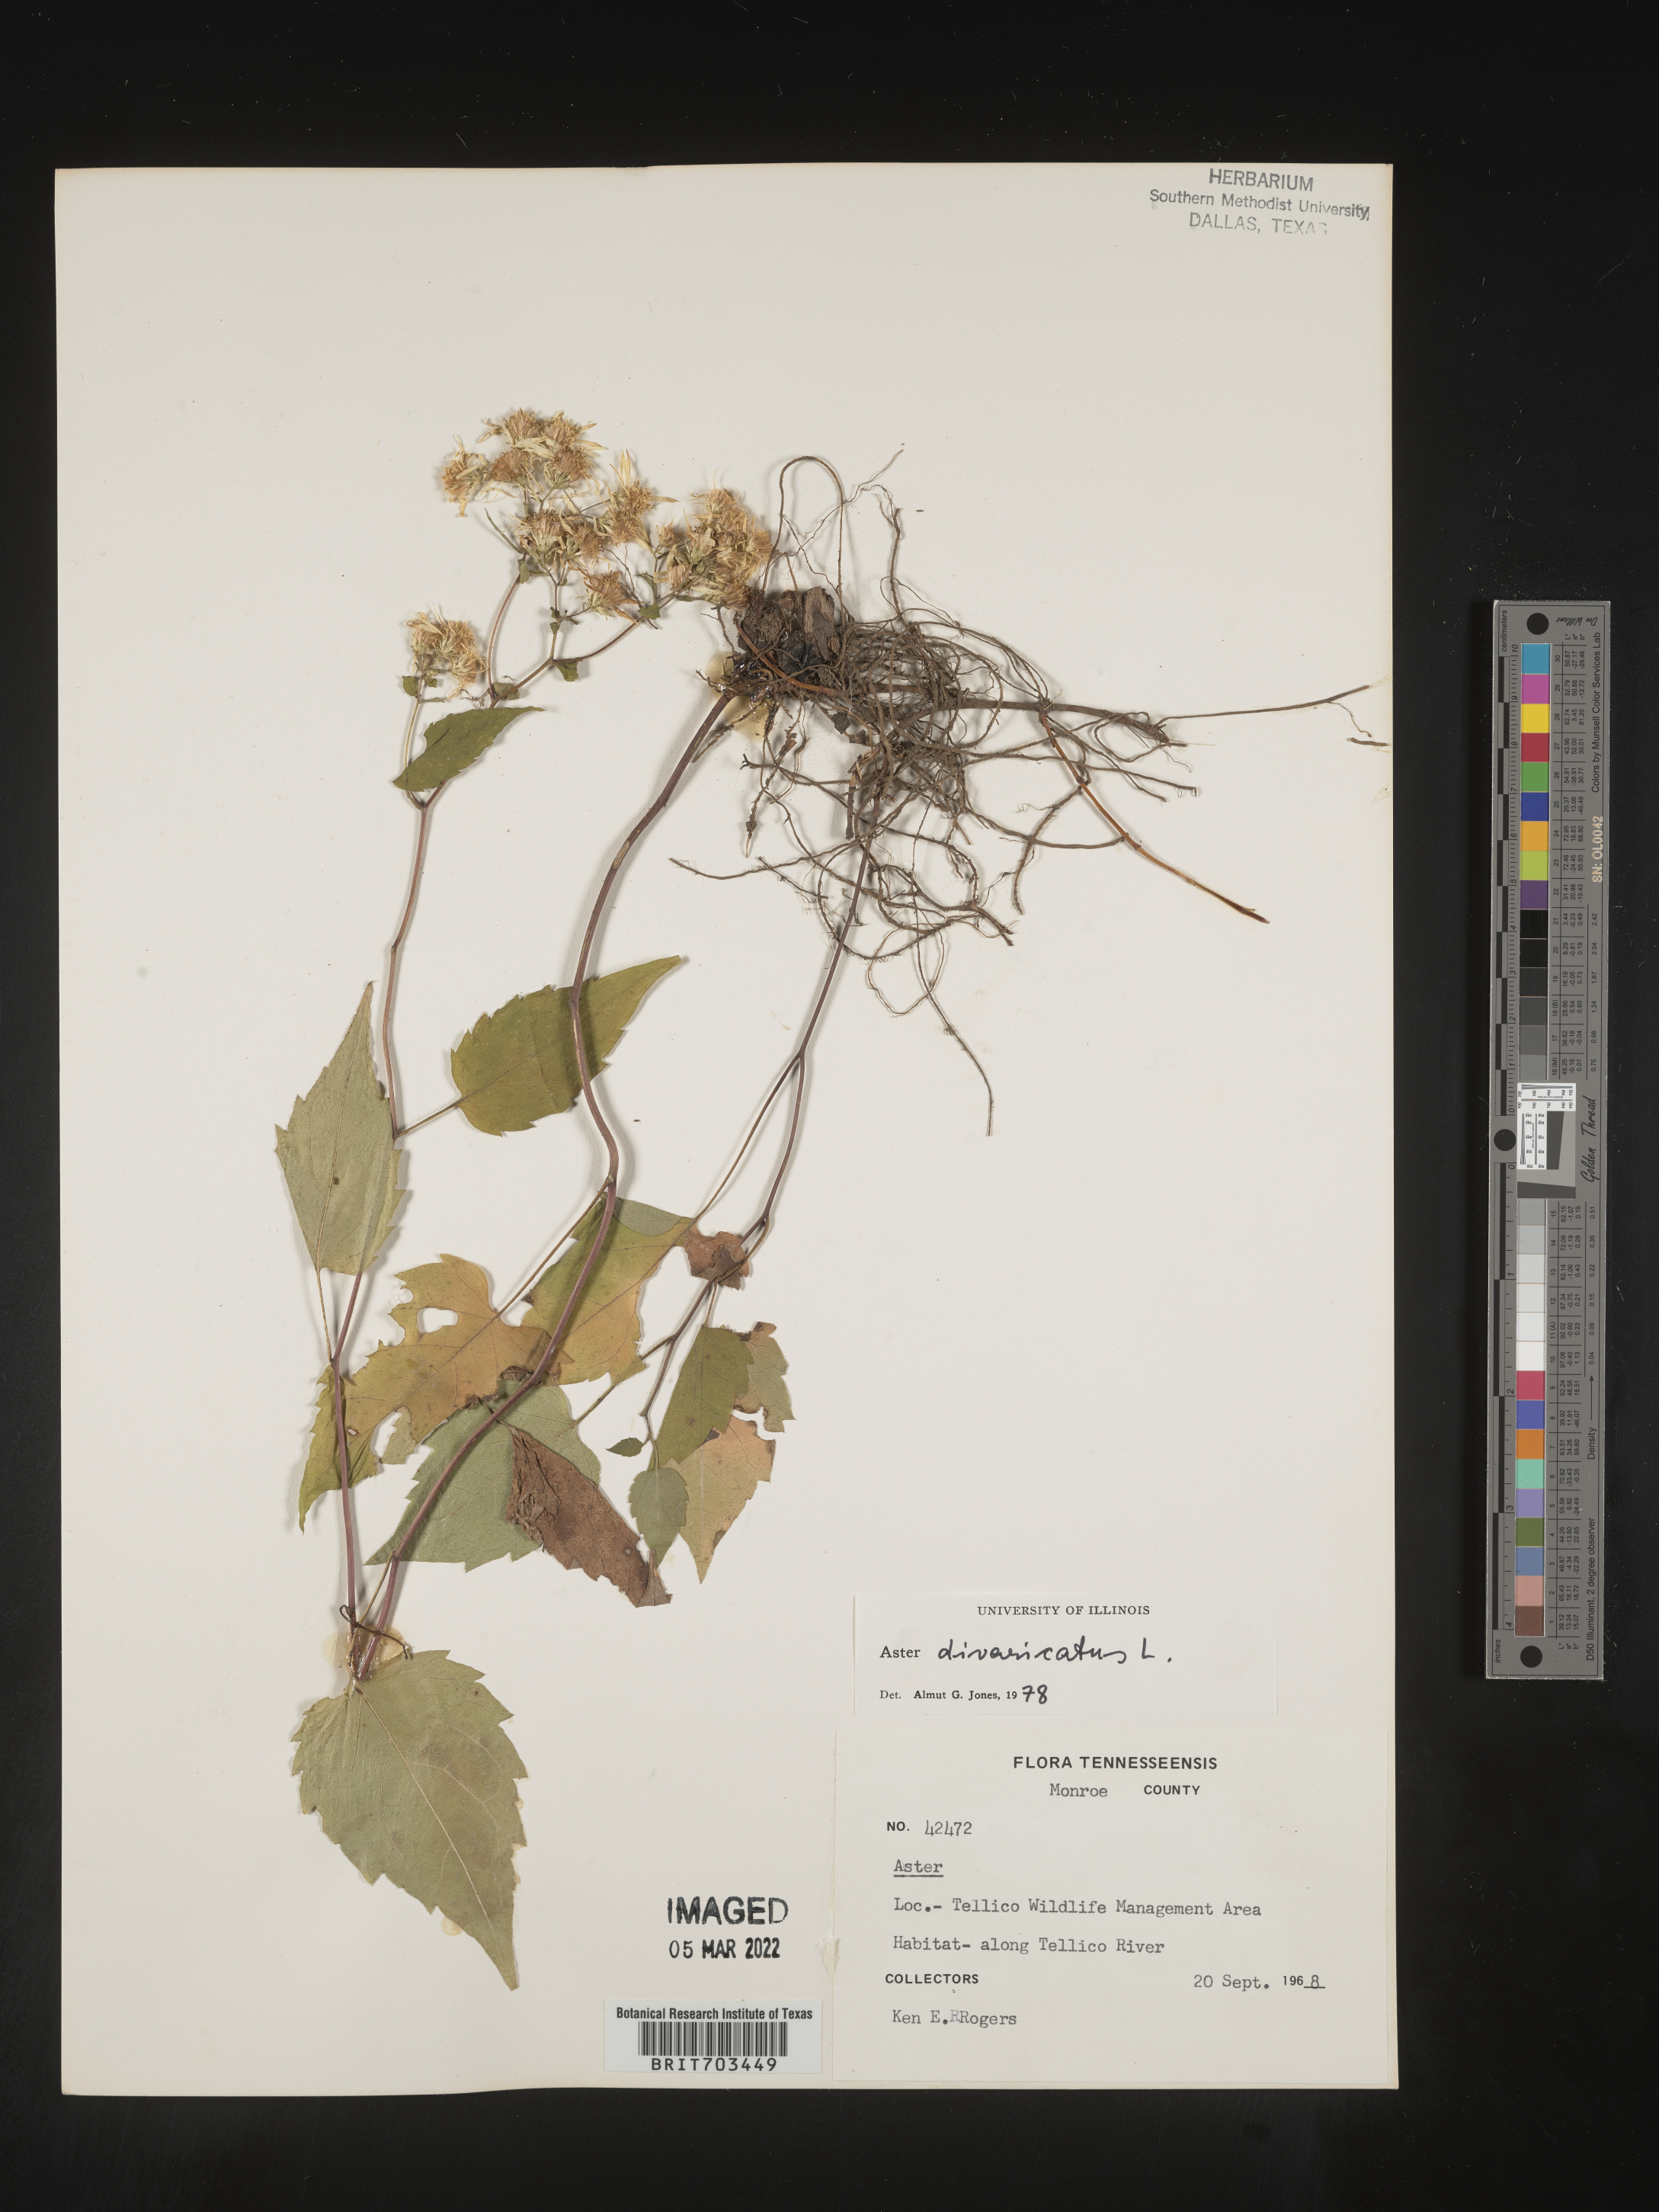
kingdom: Plantae
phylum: Tracheophyta
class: Magnoliopsida
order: Asterales
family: Asteraceae
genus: Eurybia
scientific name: Eurybia divaricata
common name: White wood aster
